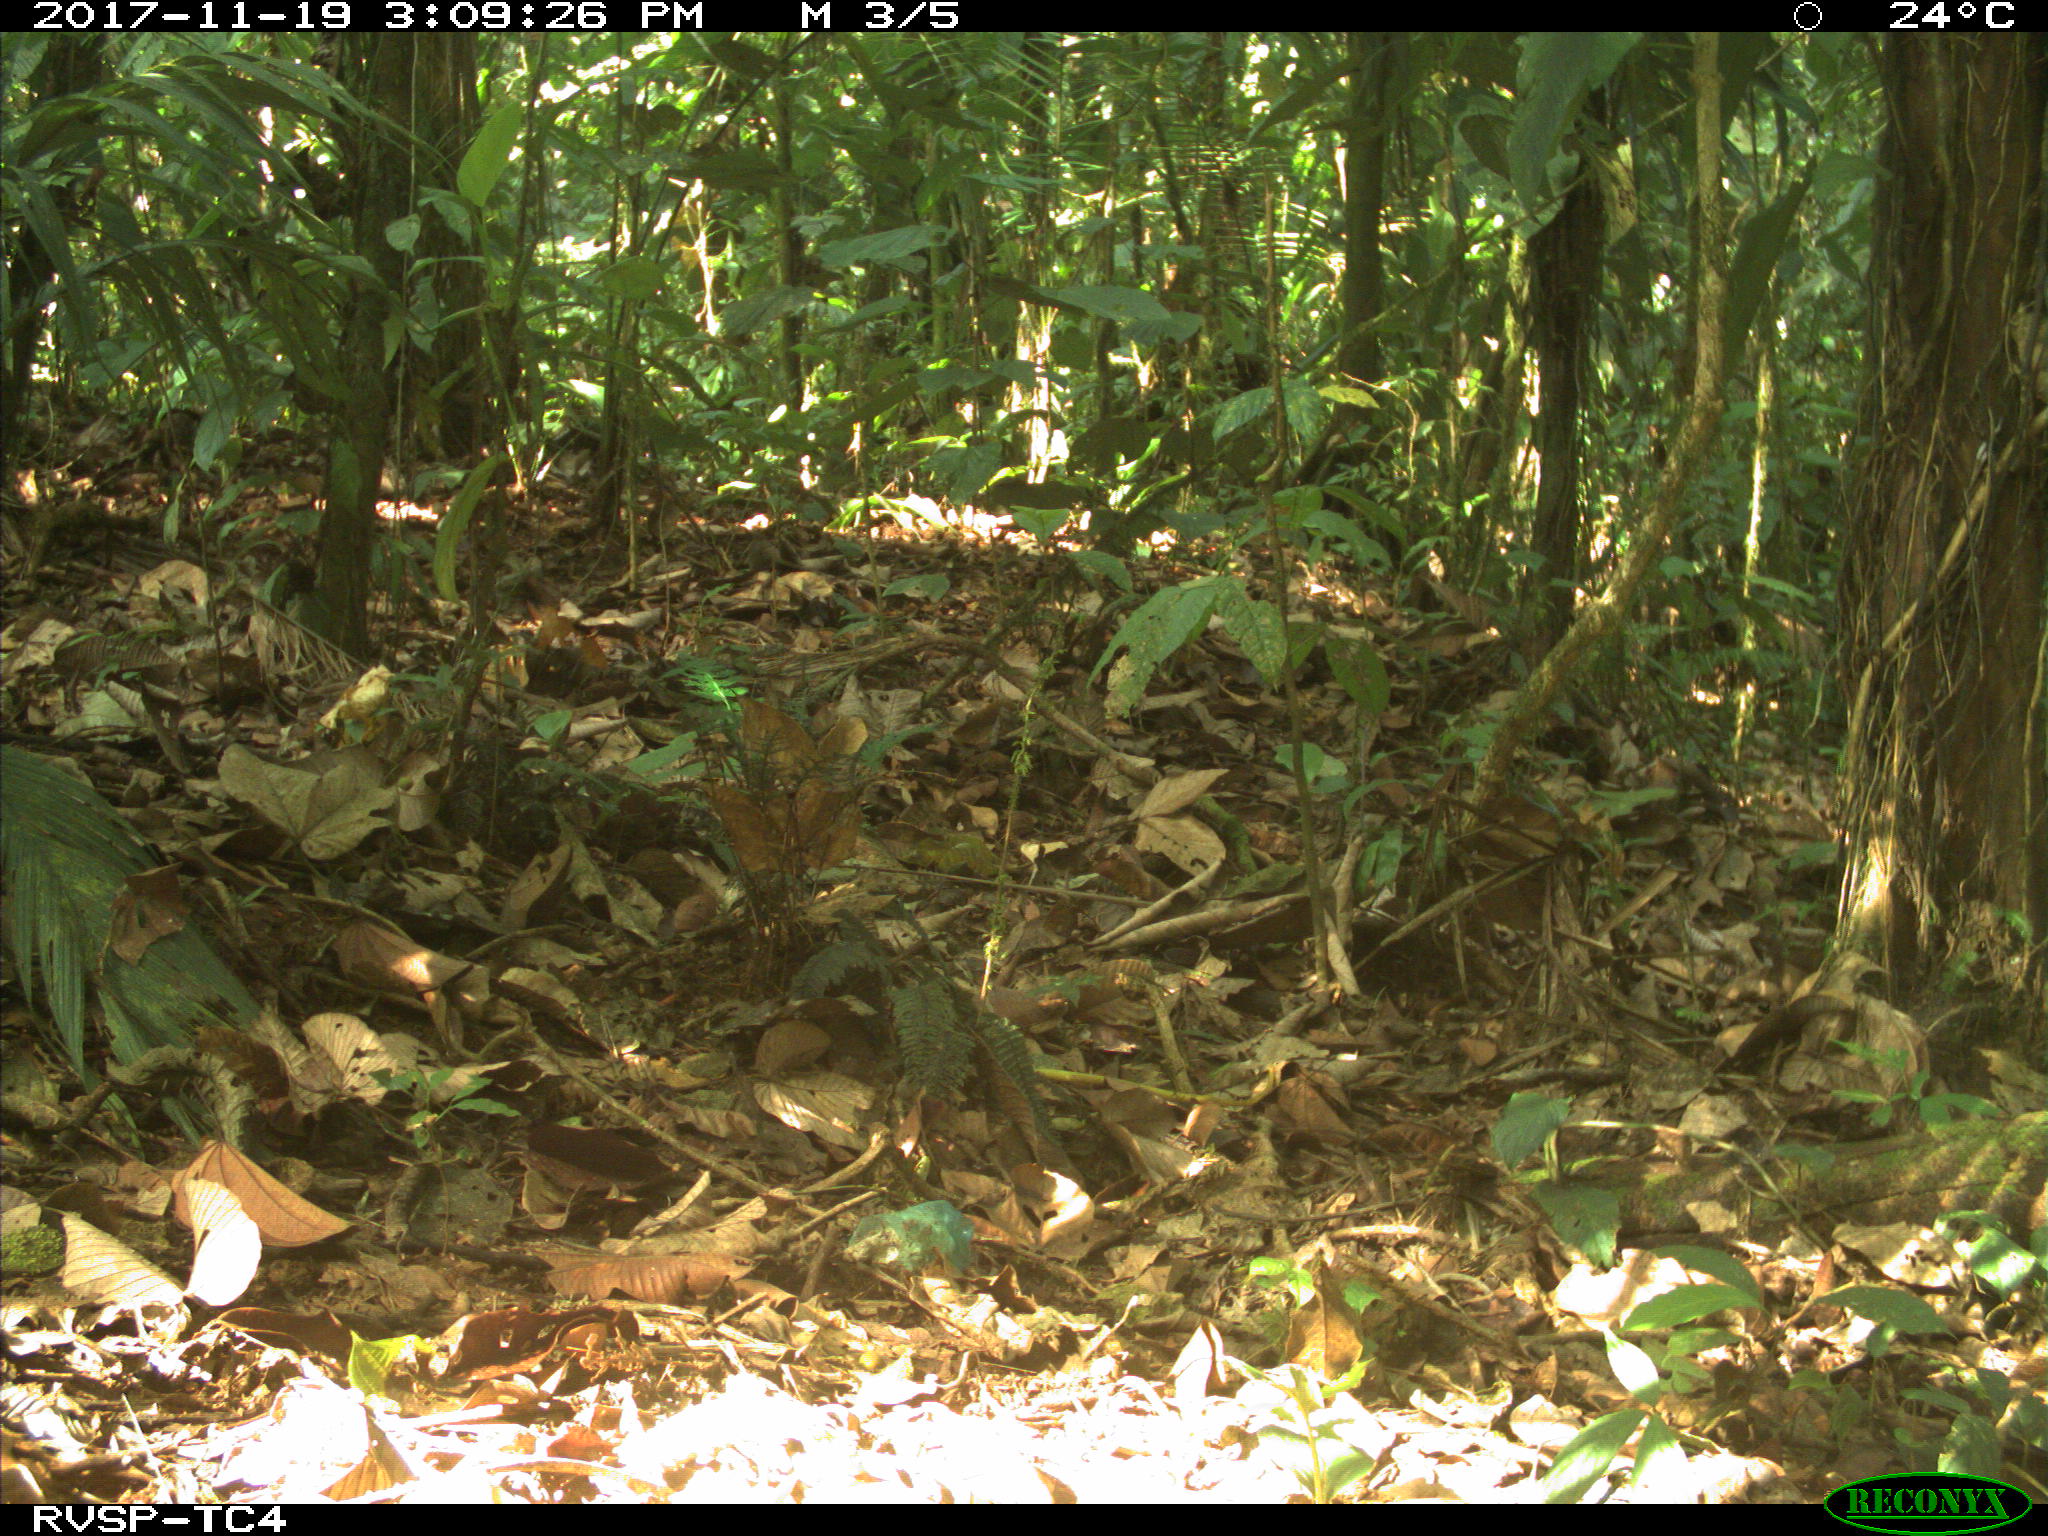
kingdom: Animalia
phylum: Chordata
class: Aves
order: Tinamiformes
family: Tinamidae
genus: Tinamus
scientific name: Tinamus major
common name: Great tinamou
